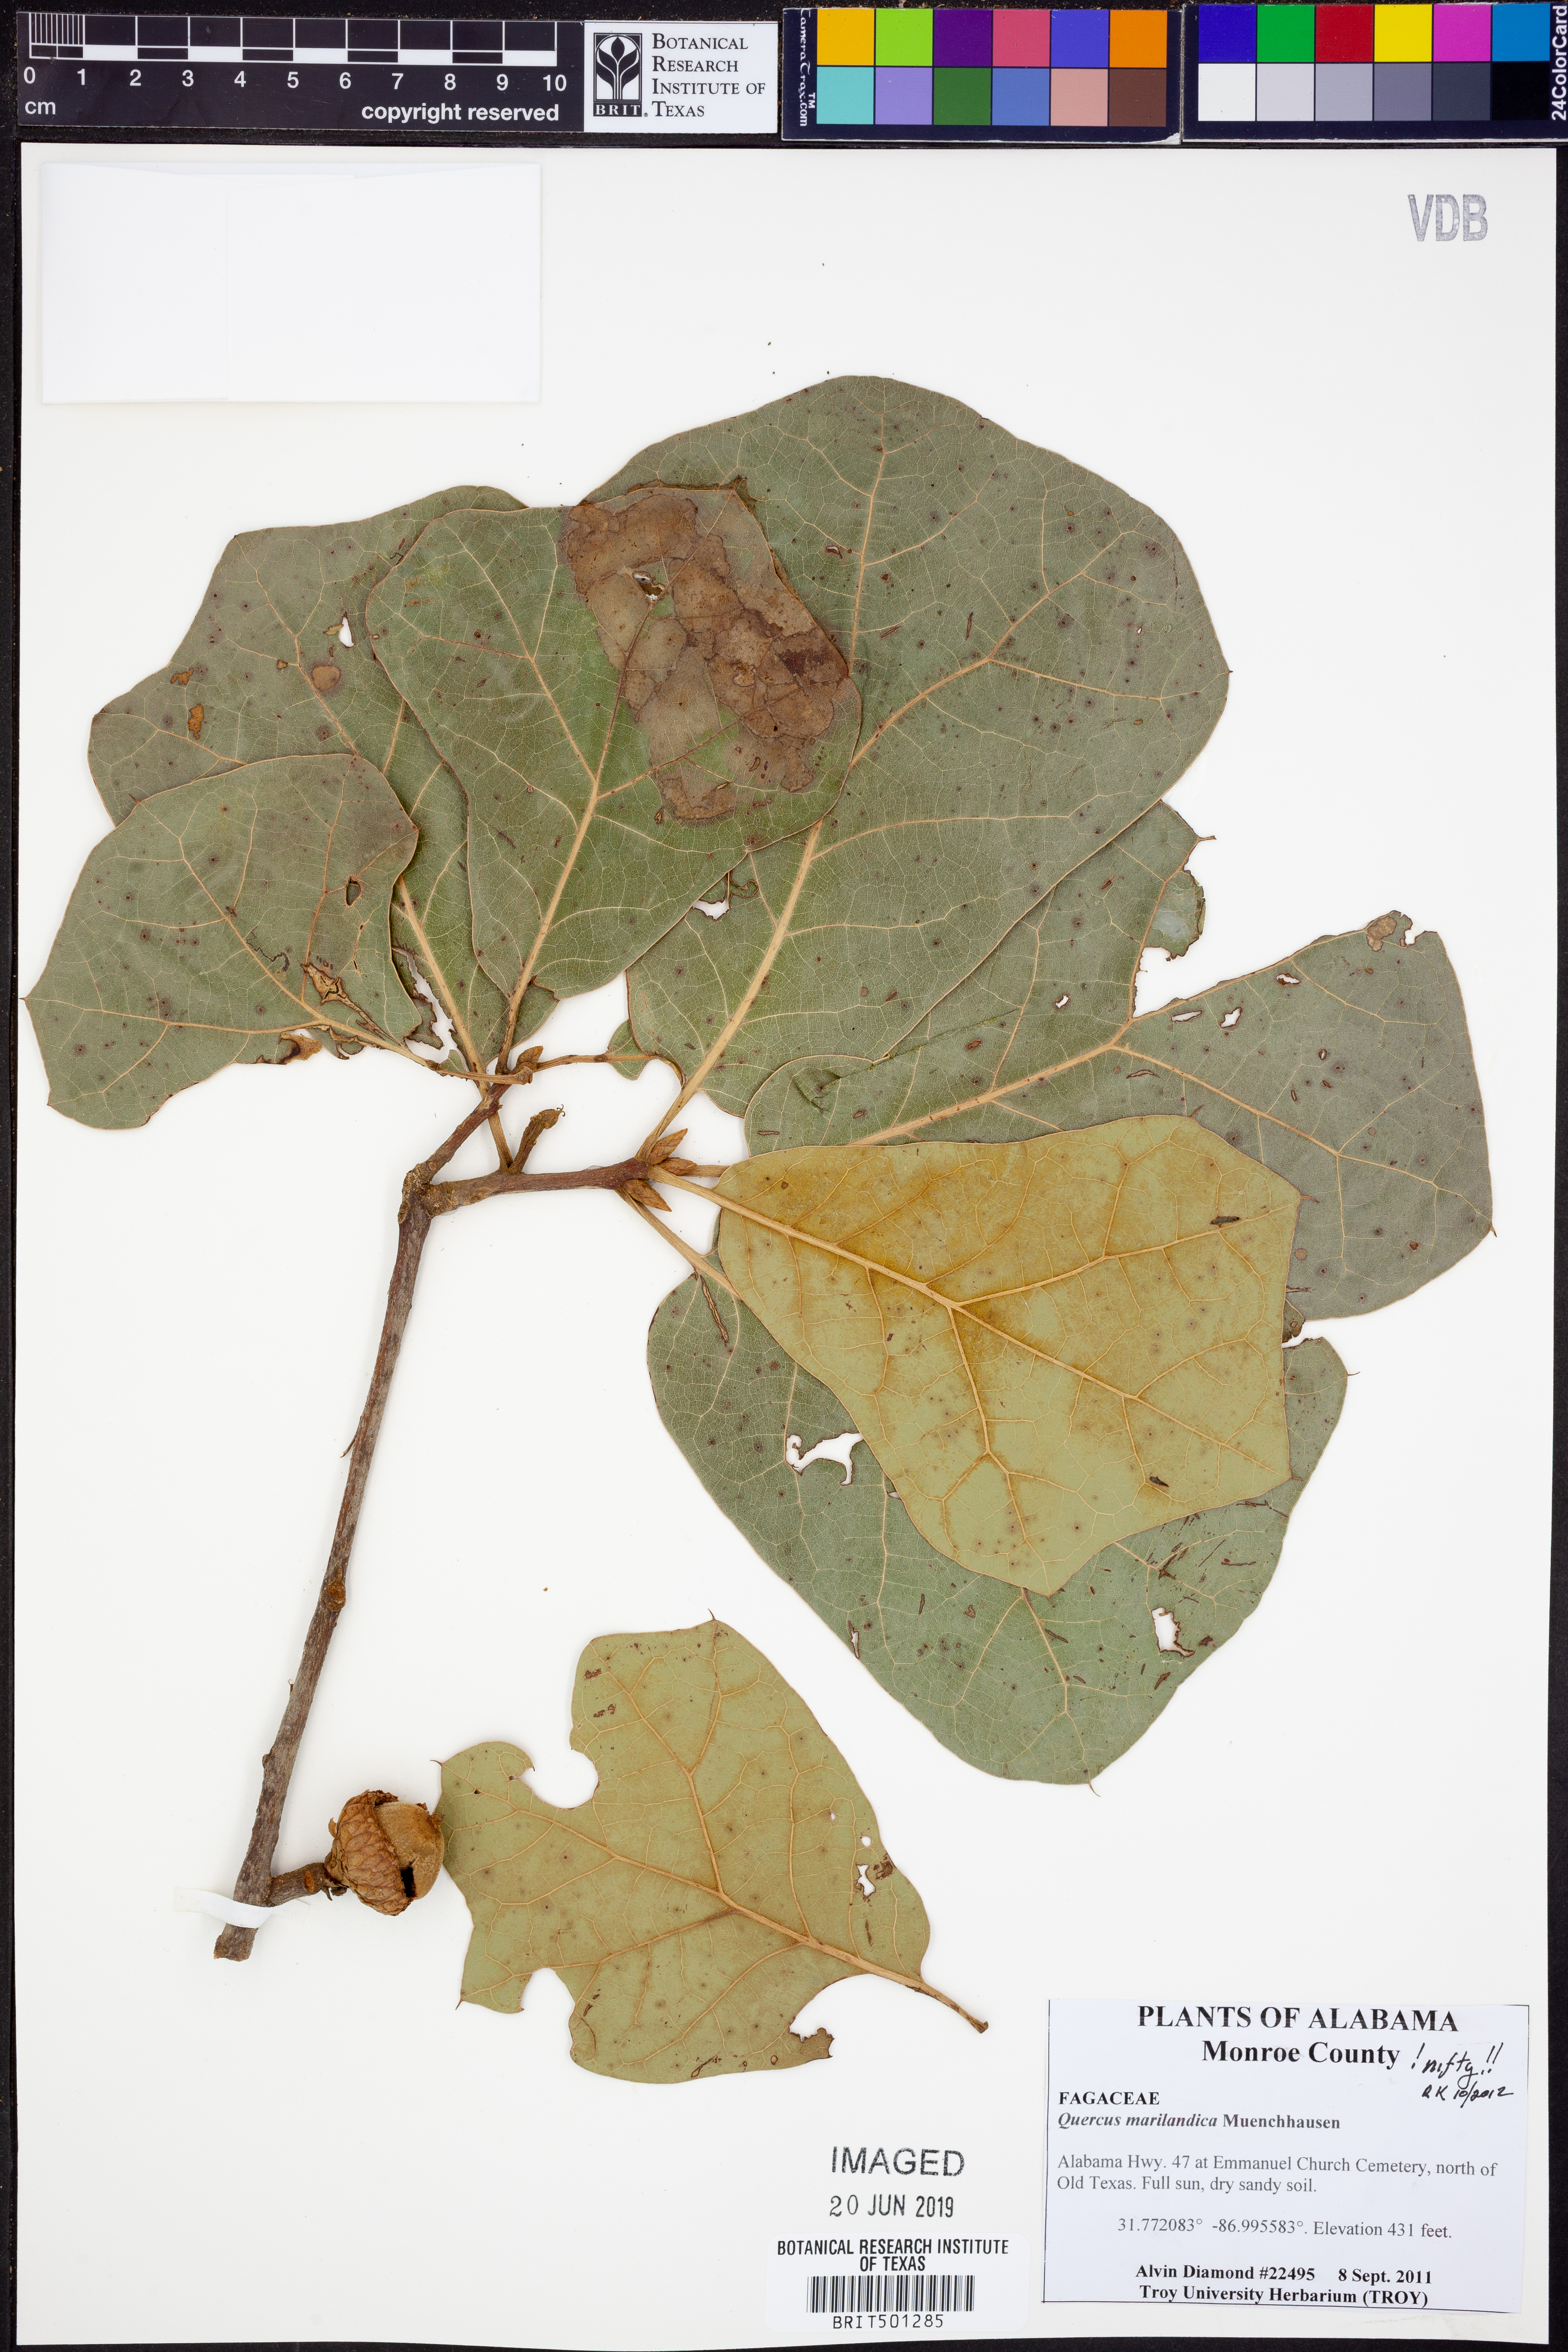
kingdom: Plantae
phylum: Tracheophyta
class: Magnoliopsida
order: Fagales
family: Fagaceae
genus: Quercus
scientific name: Quercus marilandica
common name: Blackjack oak
